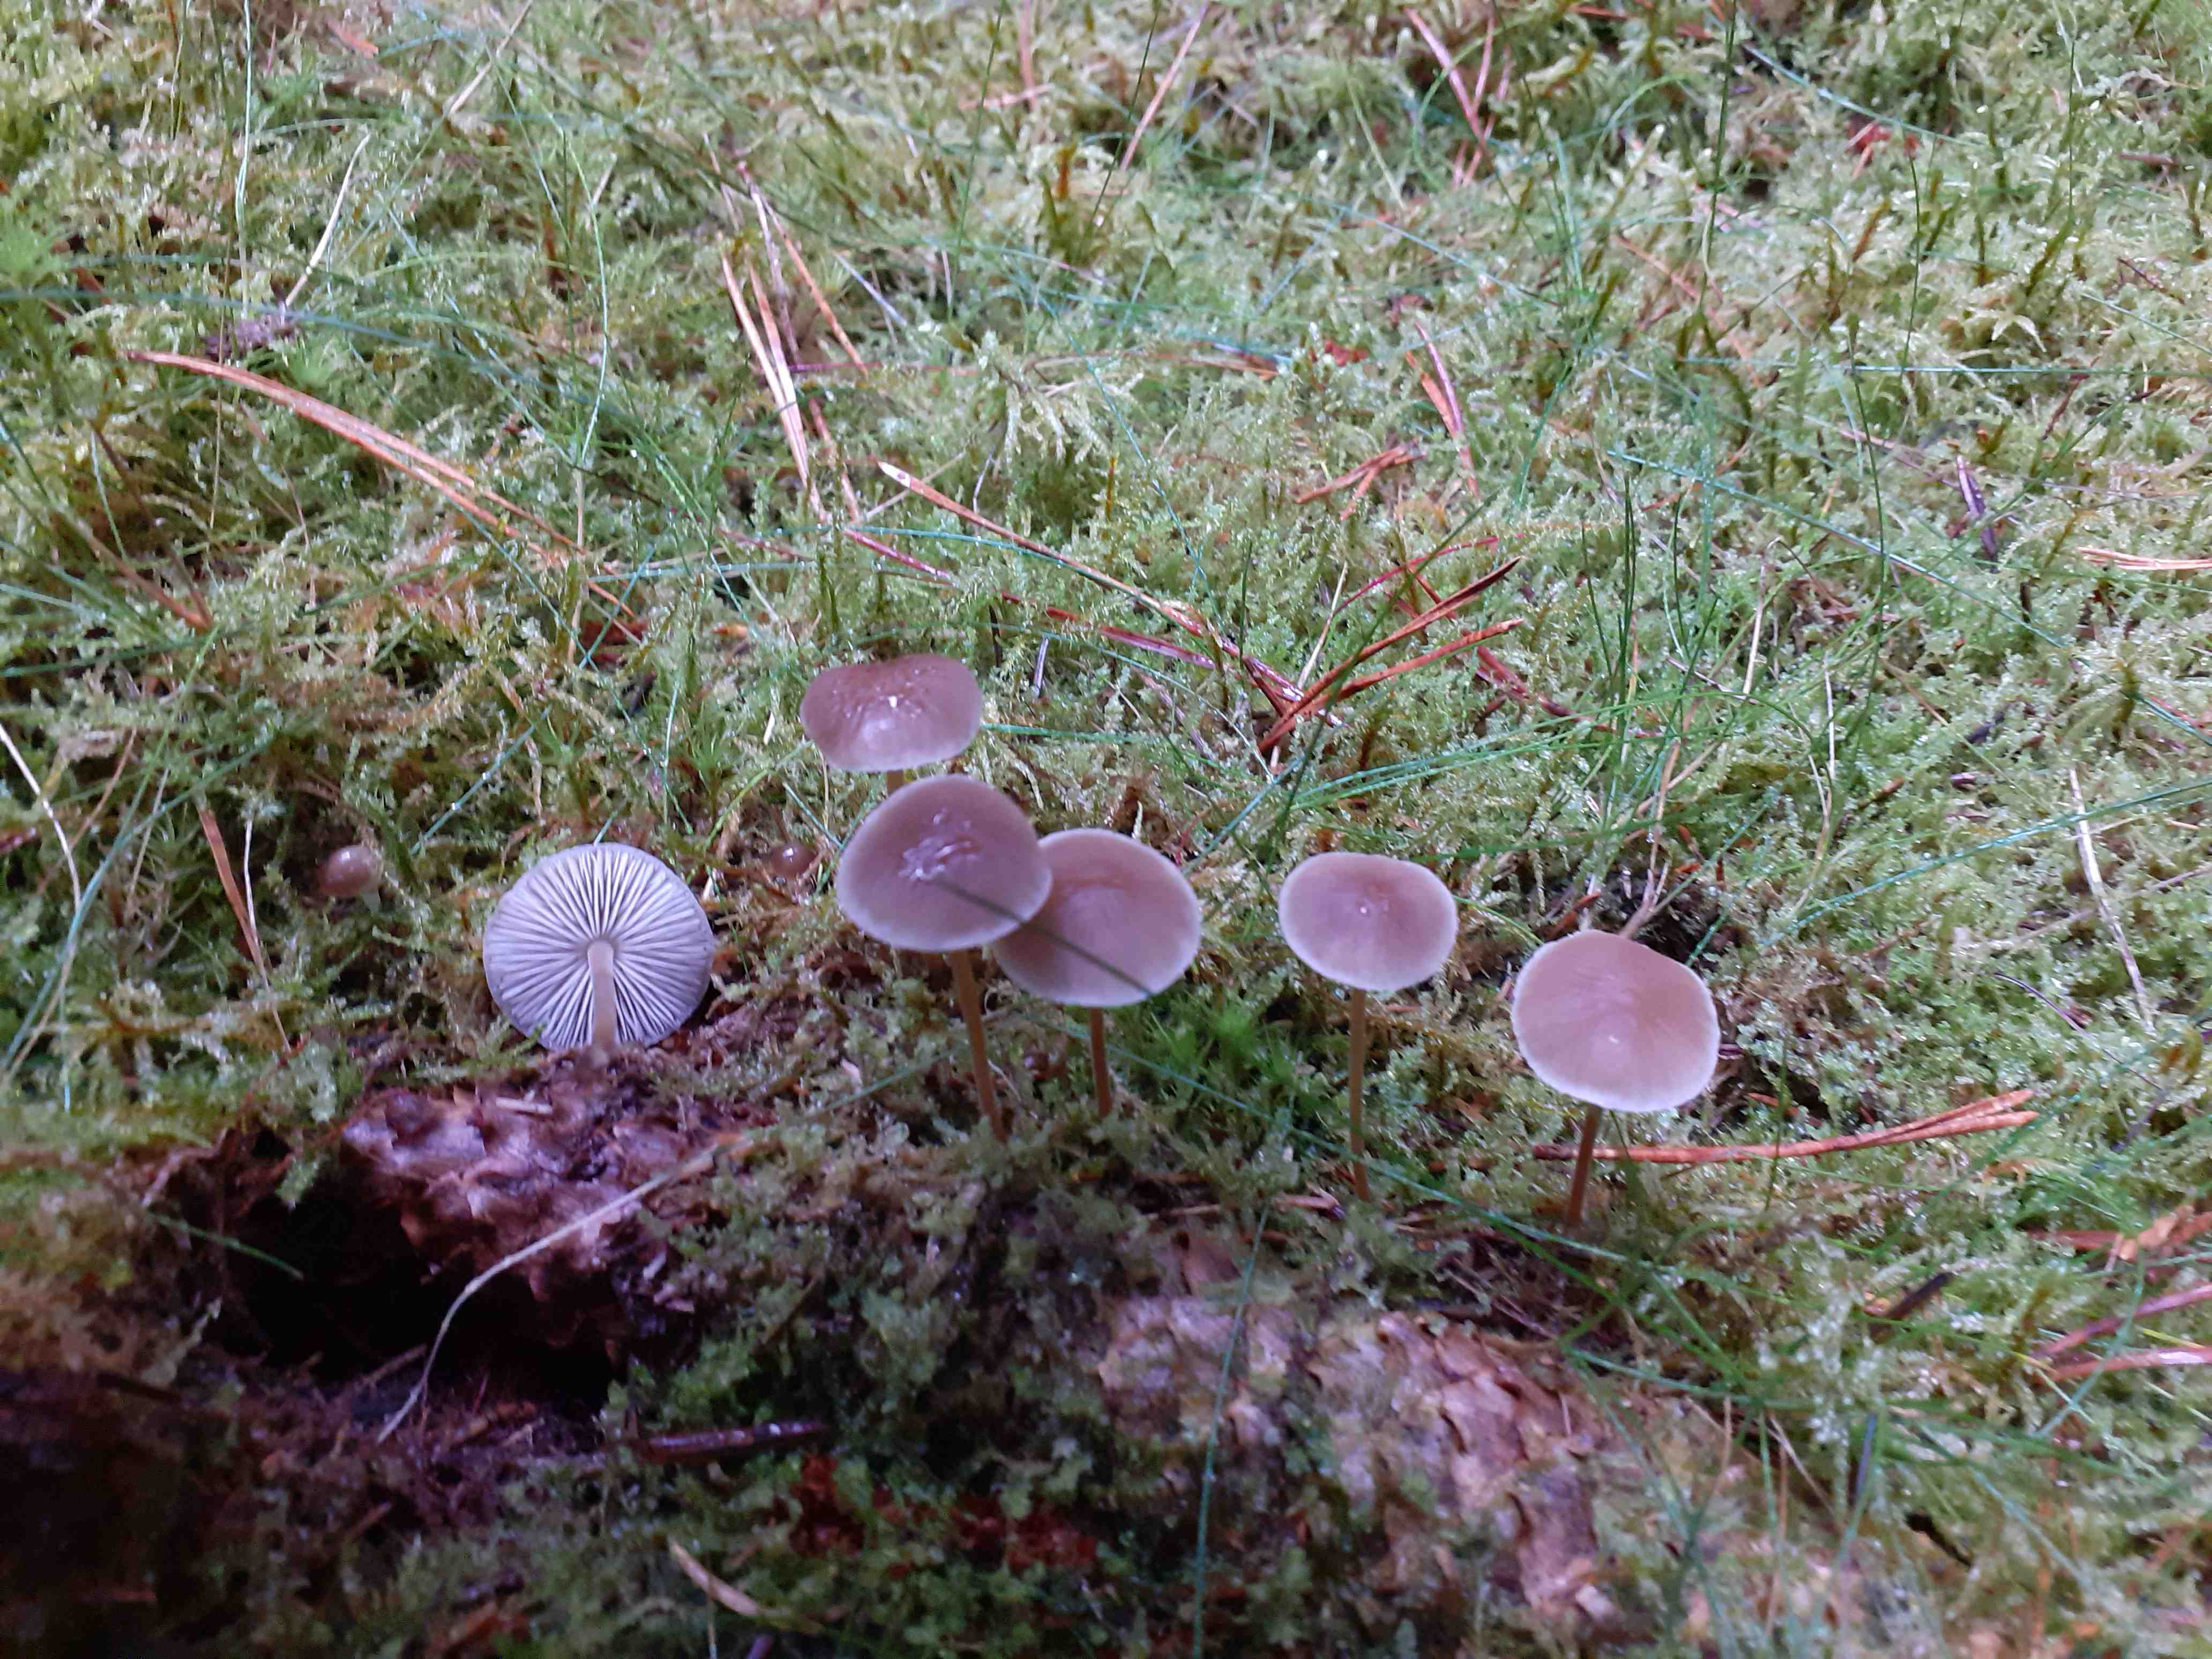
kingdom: Fungi
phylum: Basidiomycota
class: Agaricomycetes
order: Agaricales
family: Physalacriaceae
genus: Strobilurus
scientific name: Strobilurus esculentus
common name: gran-koglehat
